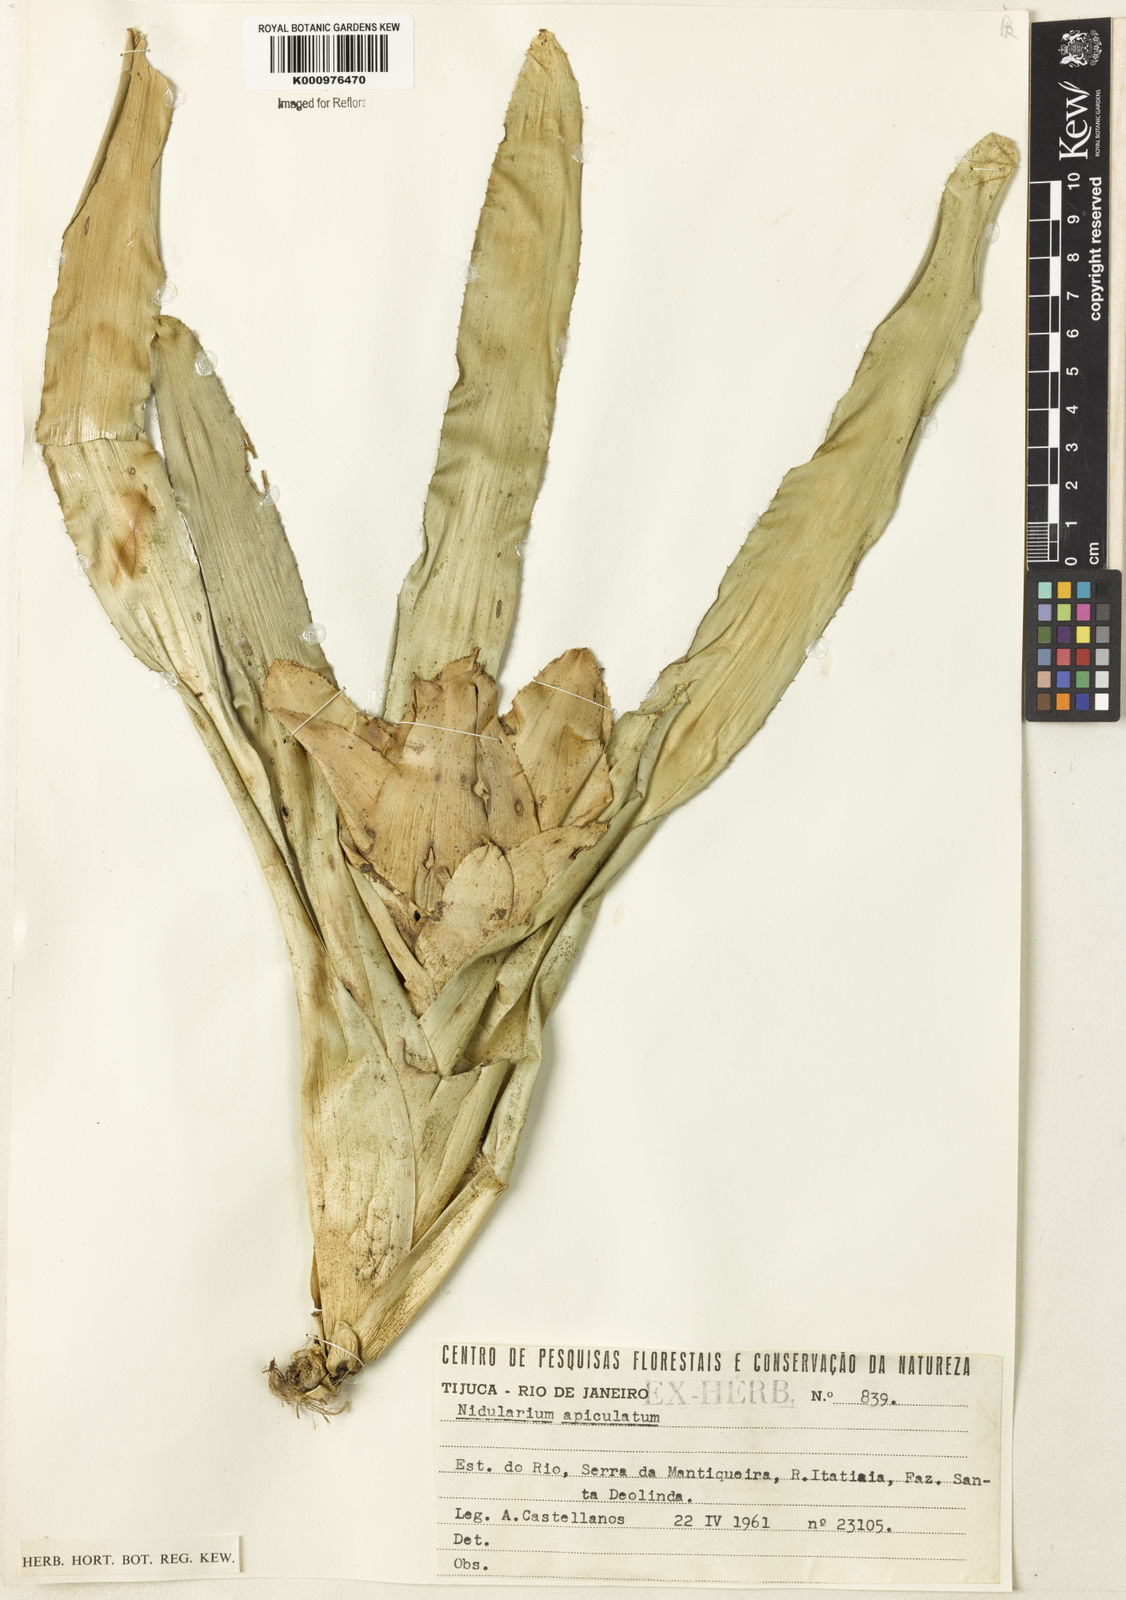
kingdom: Plantae
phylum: Tracheophyta
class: Liliopsida
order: Poales
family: Bromeliaceae
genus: Nidularium
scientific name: Nidularium apiculatum
